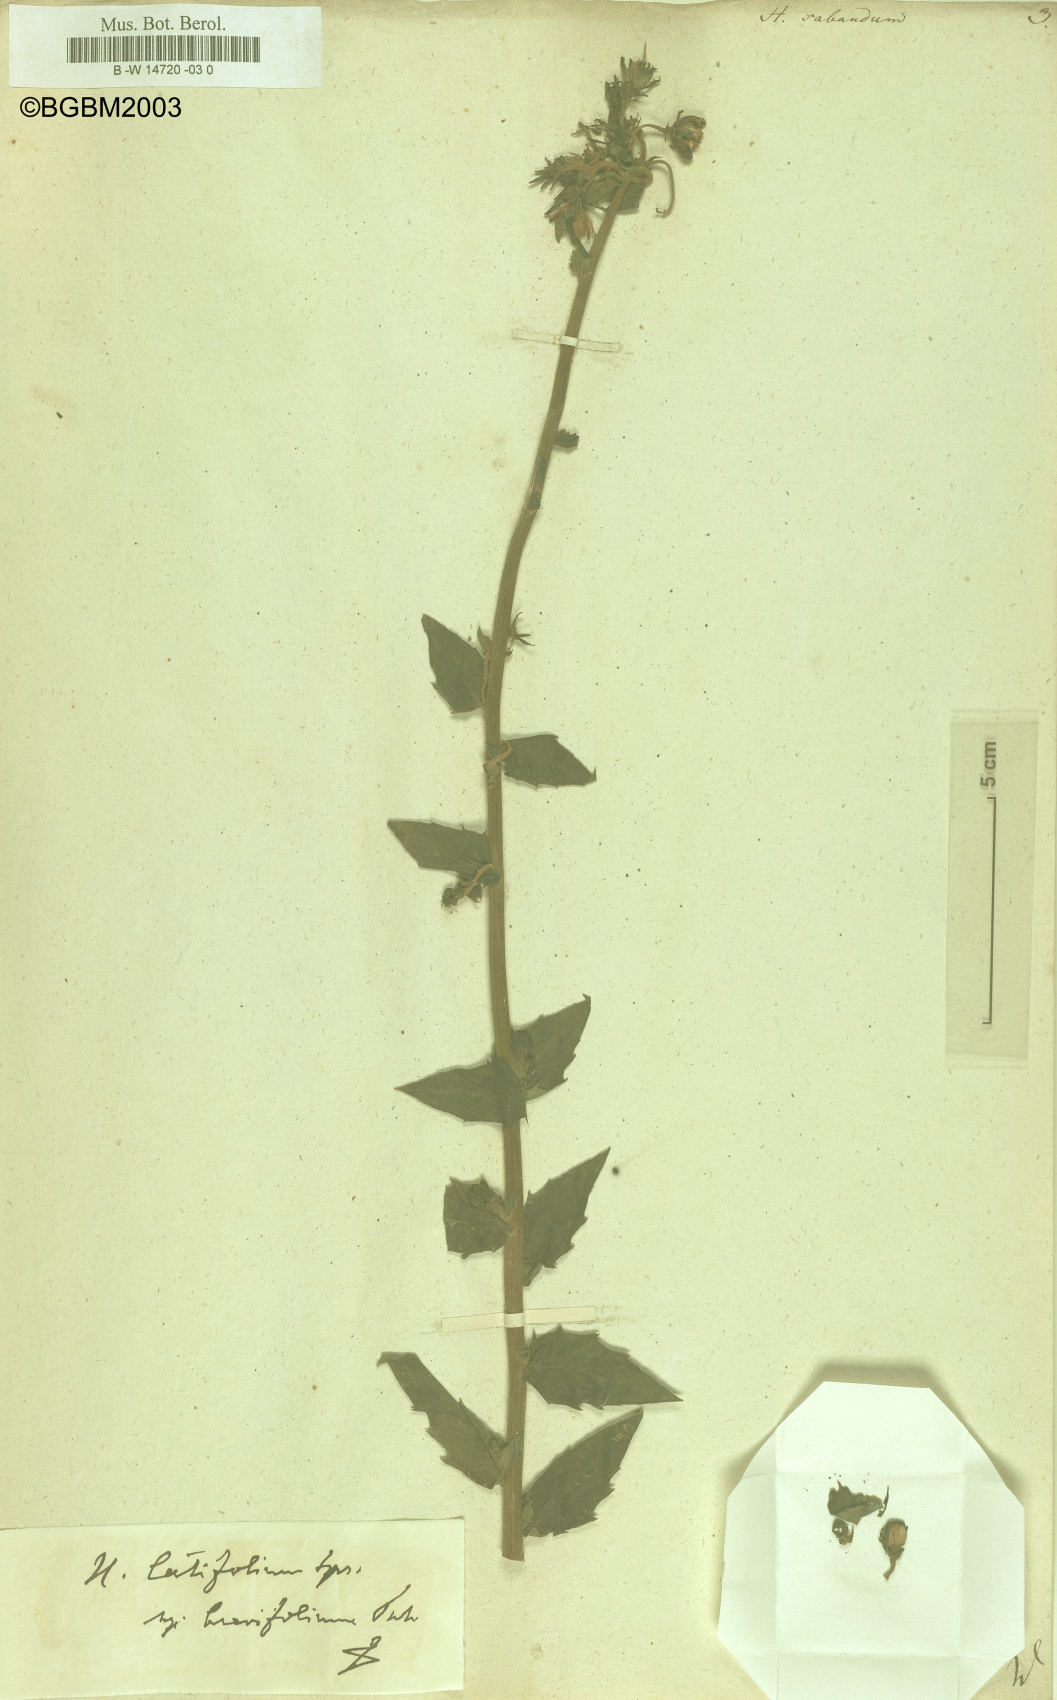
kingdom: Plantae
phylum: Tracheophyta
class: Magnoliopsida
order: Asterales
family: Asteraceae
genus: Hieracium
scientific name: Hieracium sabaudum
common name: New england hawkweed
